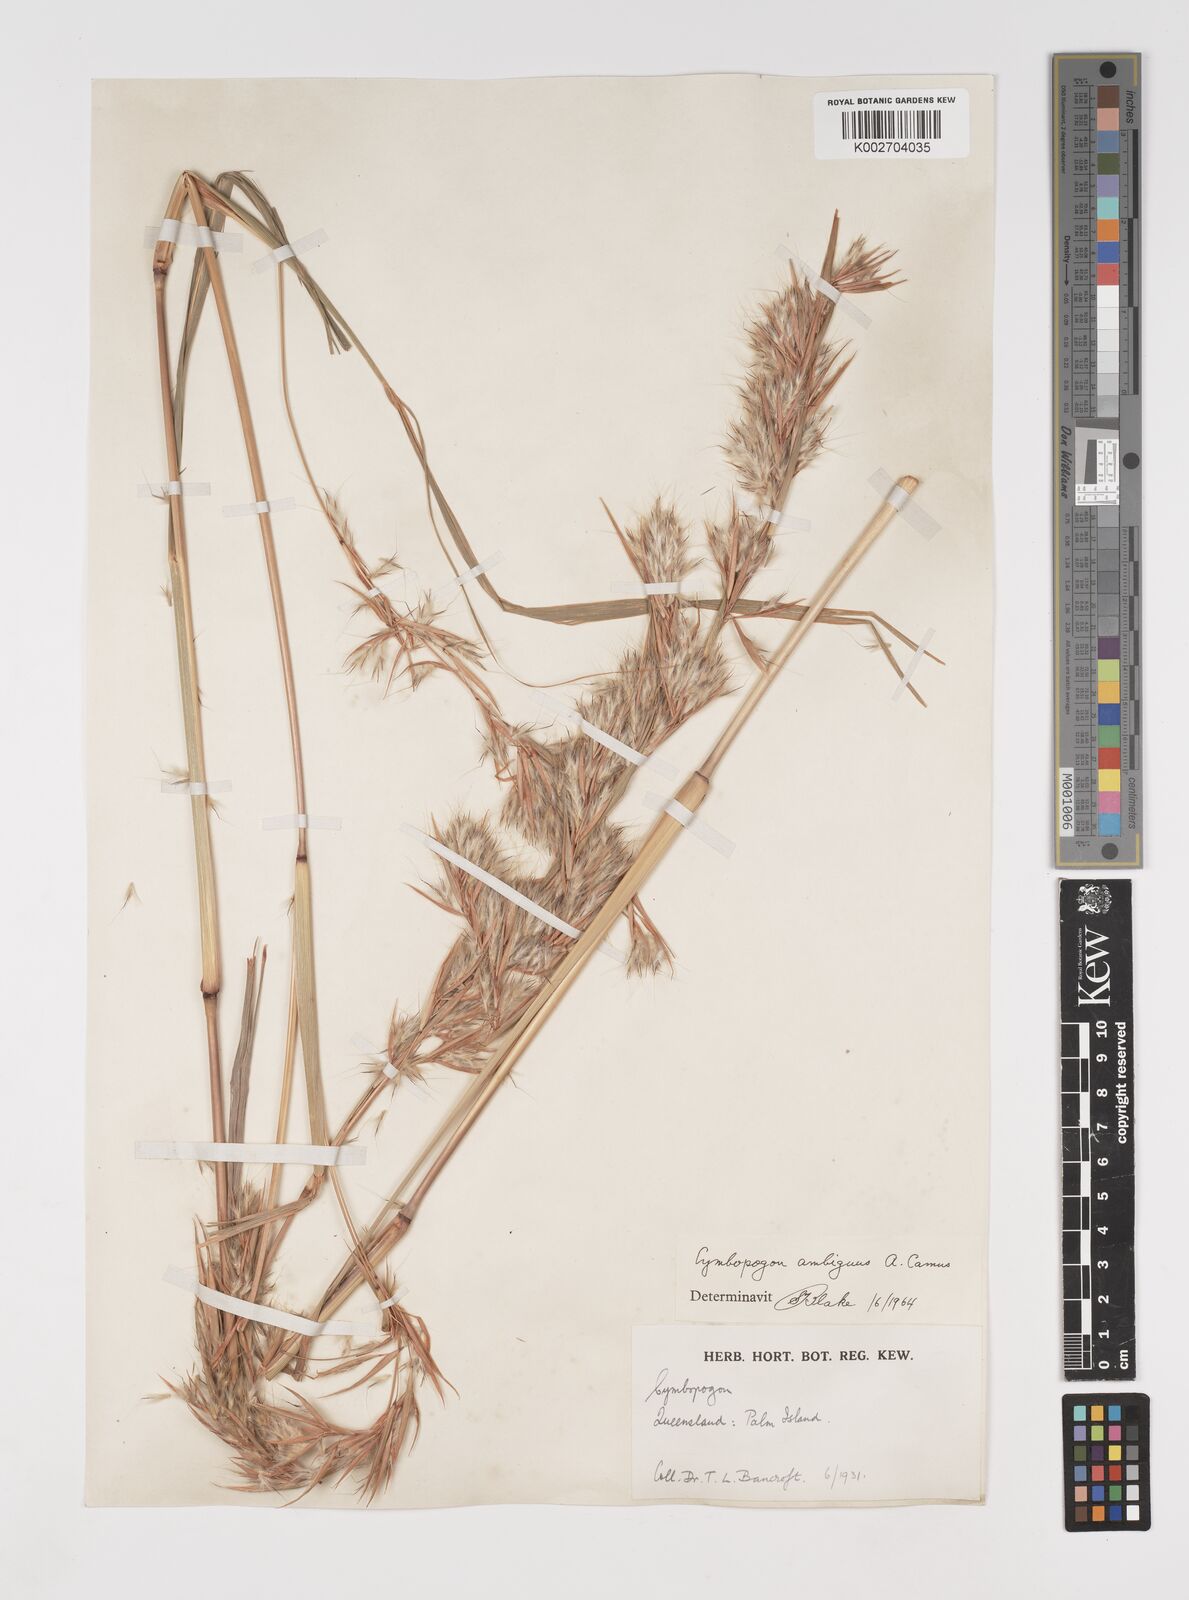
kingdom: Plantae
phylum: Tracheophyta
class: Liliopsida
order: Poales
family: Poaceae
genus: Cymbopogon
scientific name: Cymbopogon ambiguus
